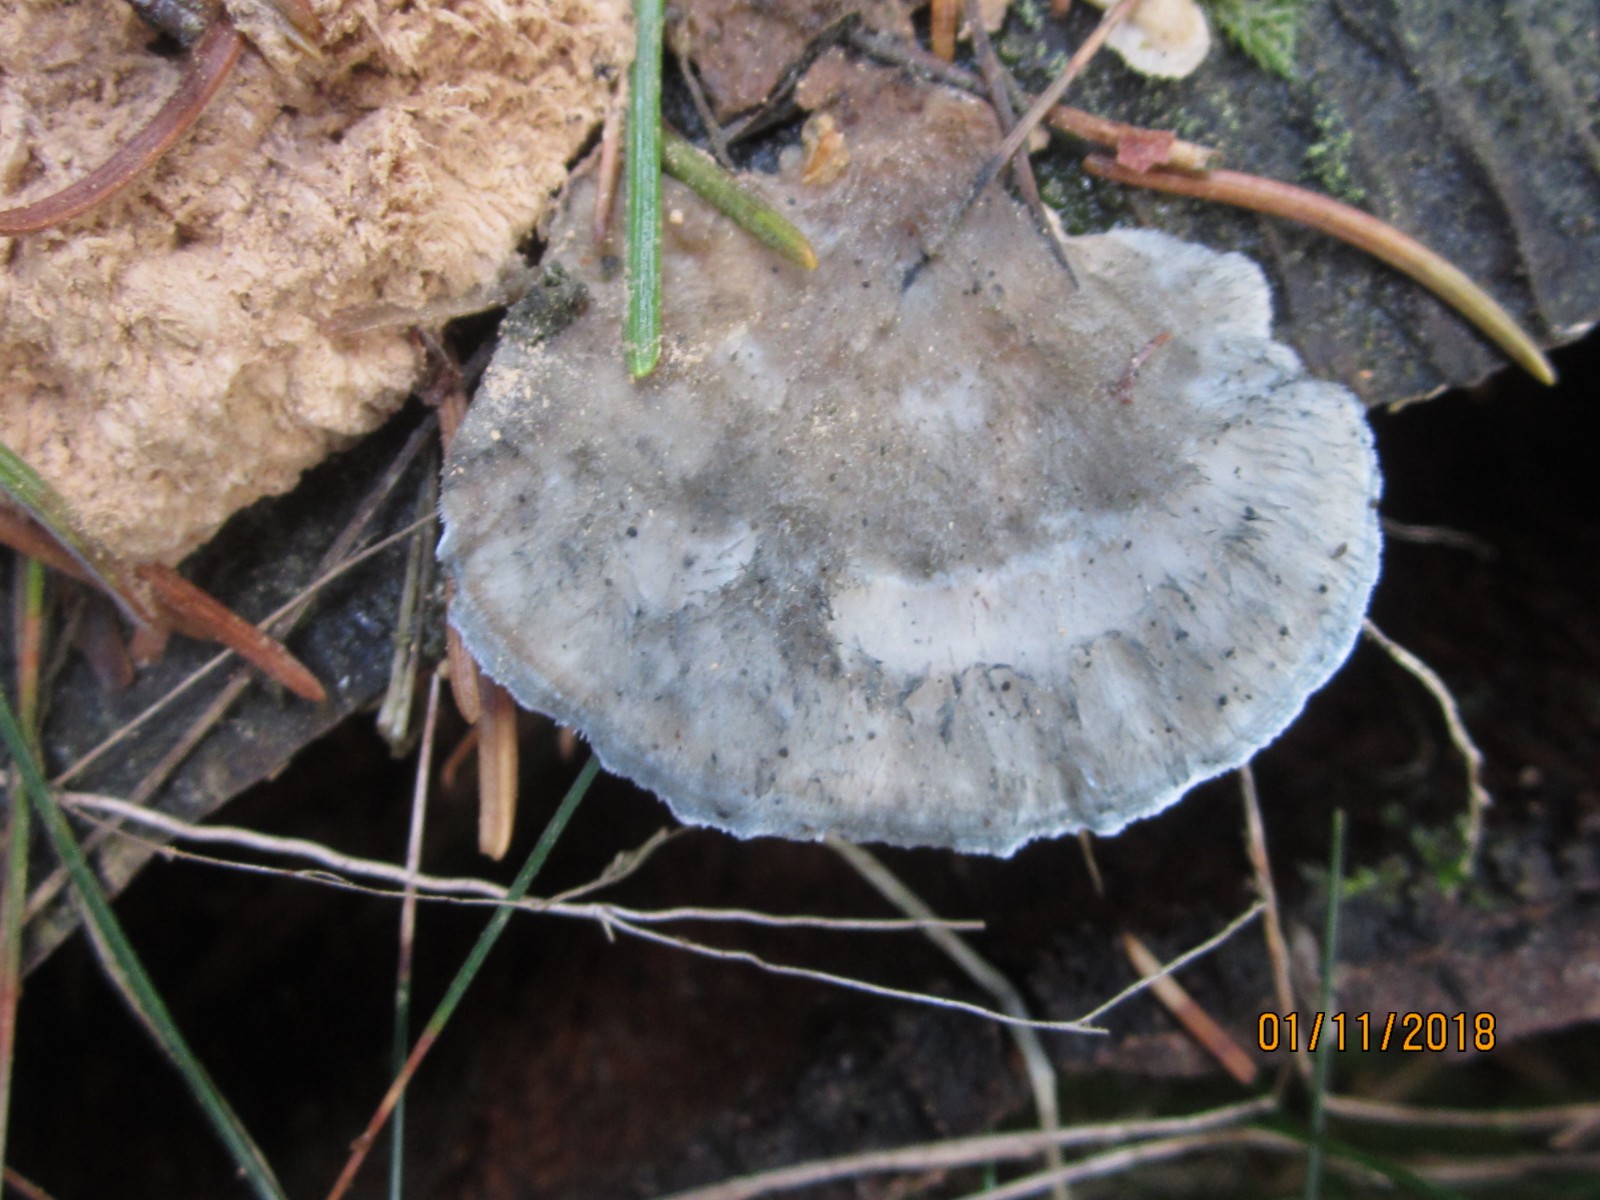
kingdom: Fungi
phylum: Basidiomycota
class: Agaricomycetes
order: Polyporales
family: Polyporaceae
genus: Cyanosporus
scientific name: Cyanosporus caesius
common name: blålig kødporesvamp
